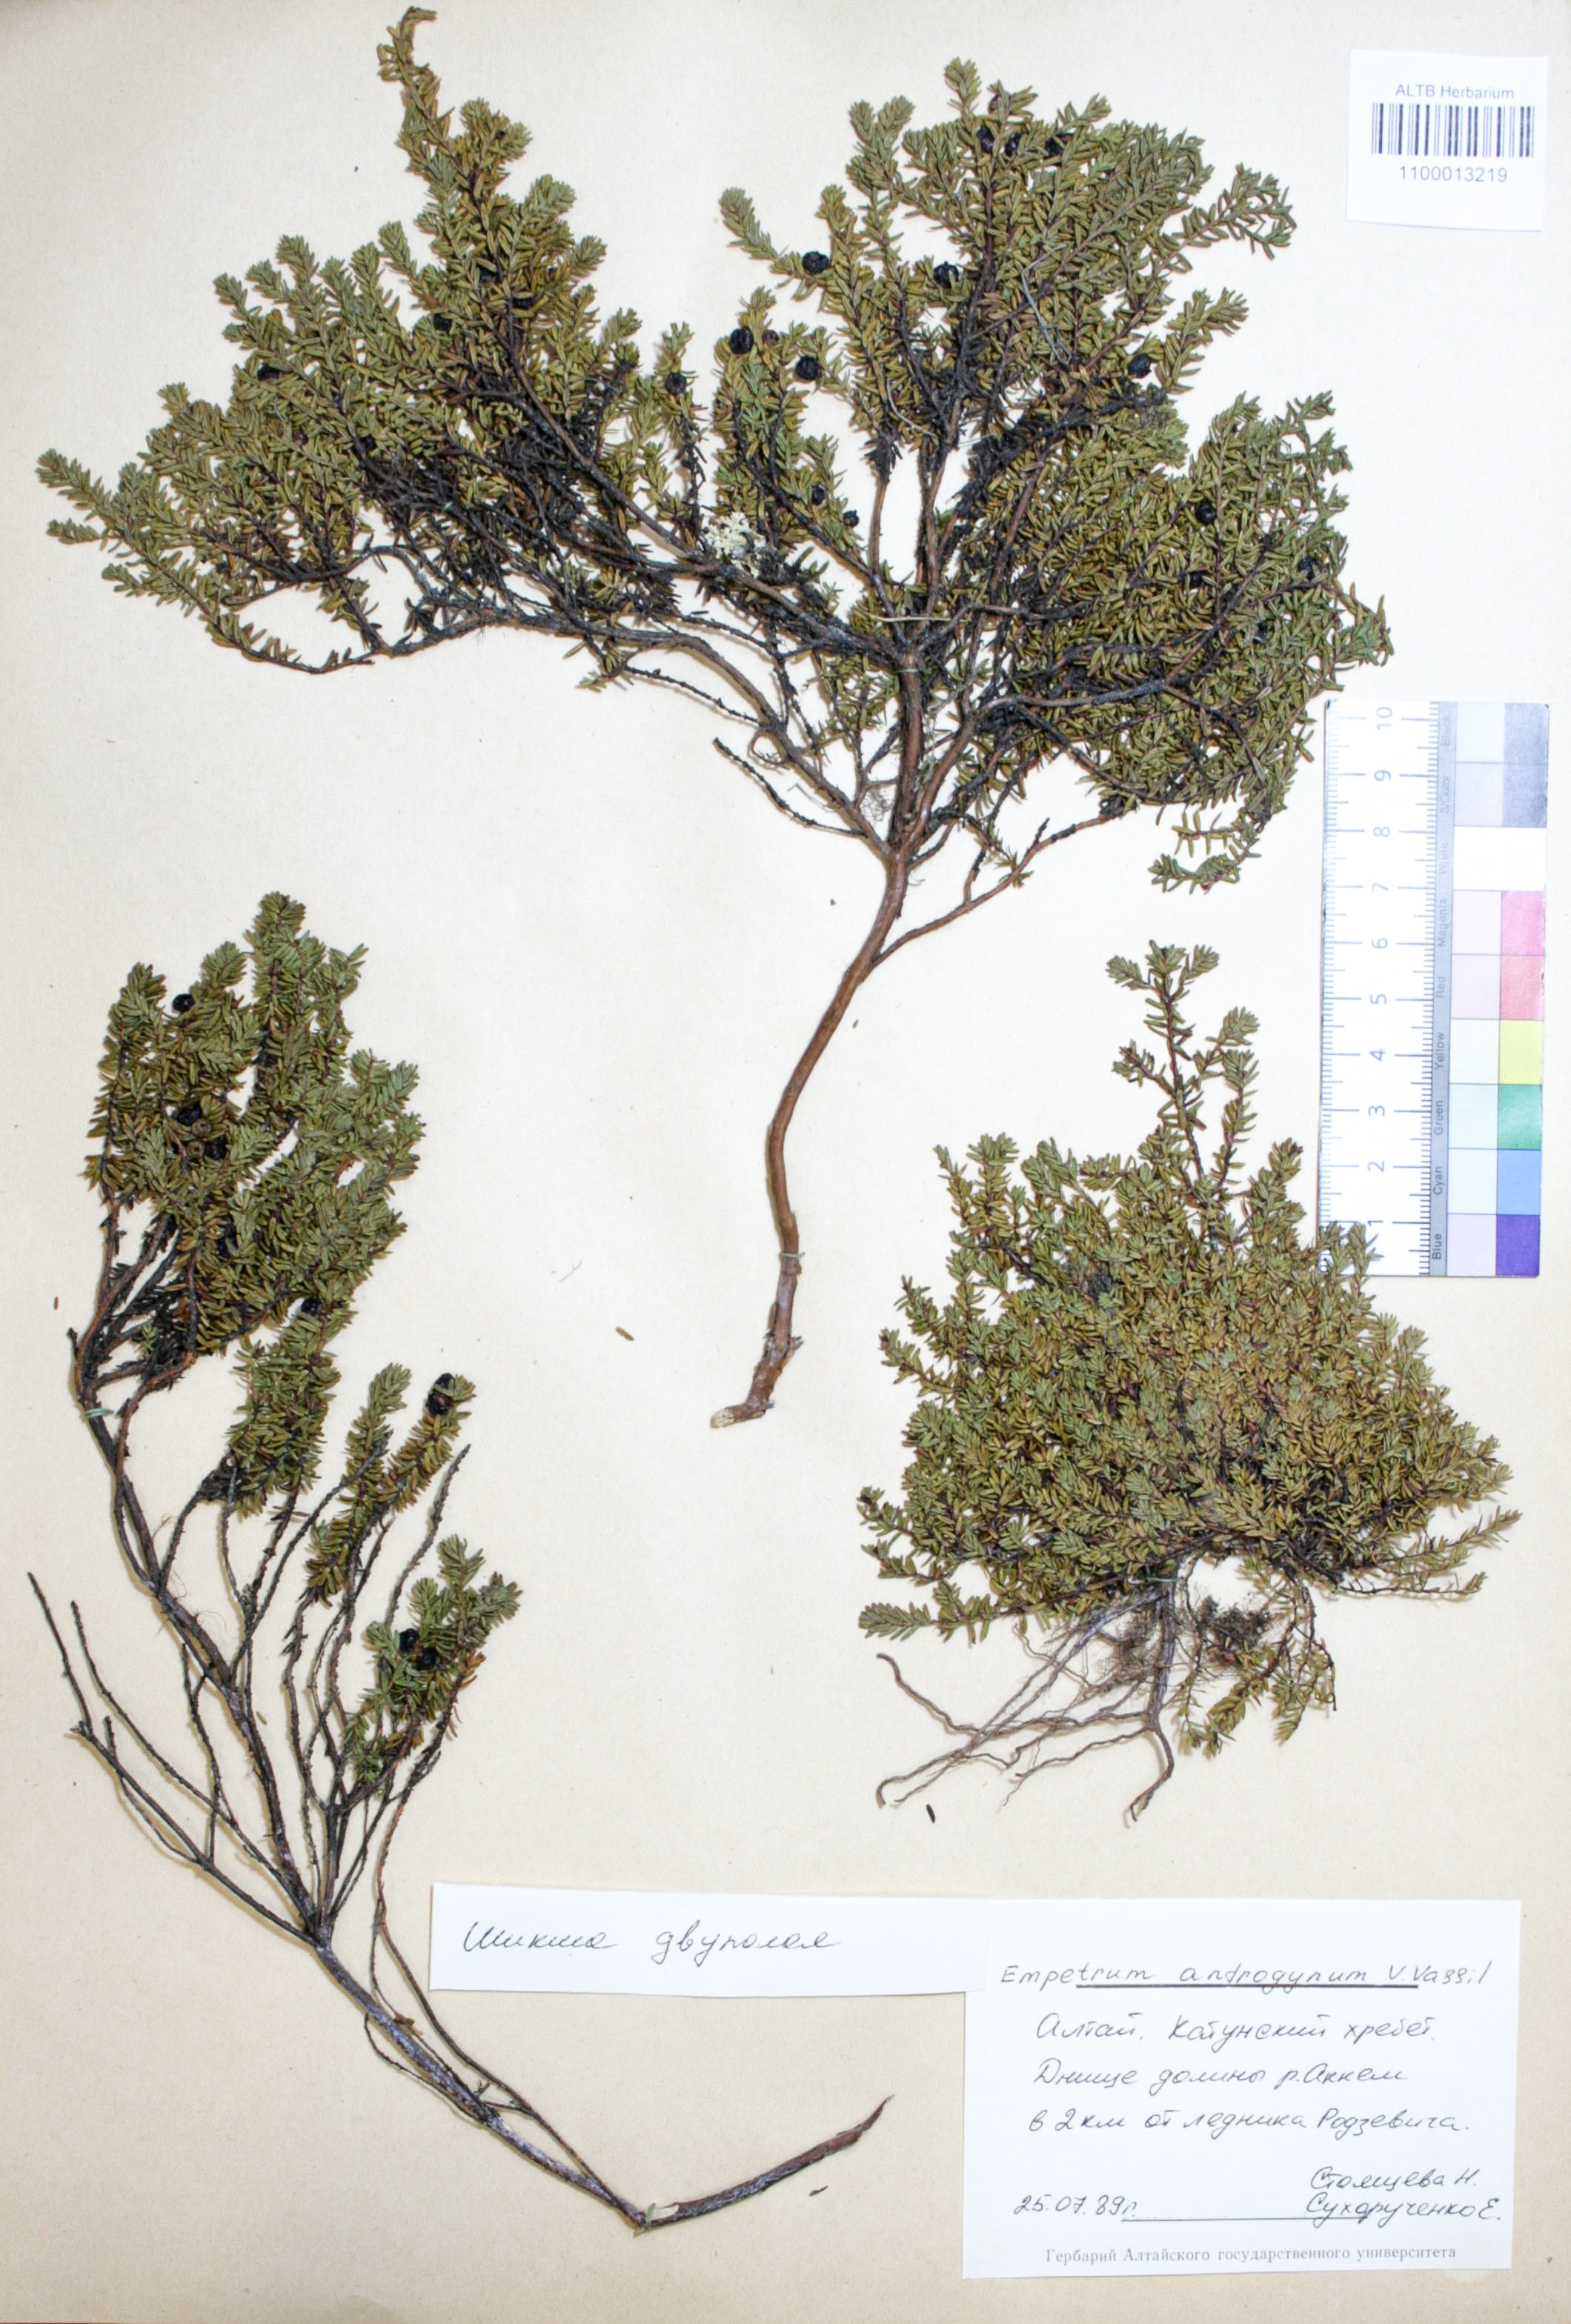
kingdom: Plantae
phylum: Tracheophyta
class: Magnoliopsida
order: Ericales
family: Ericaceae
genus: Empetrum
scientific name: Empetrum nigrum
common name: Black crowberry
